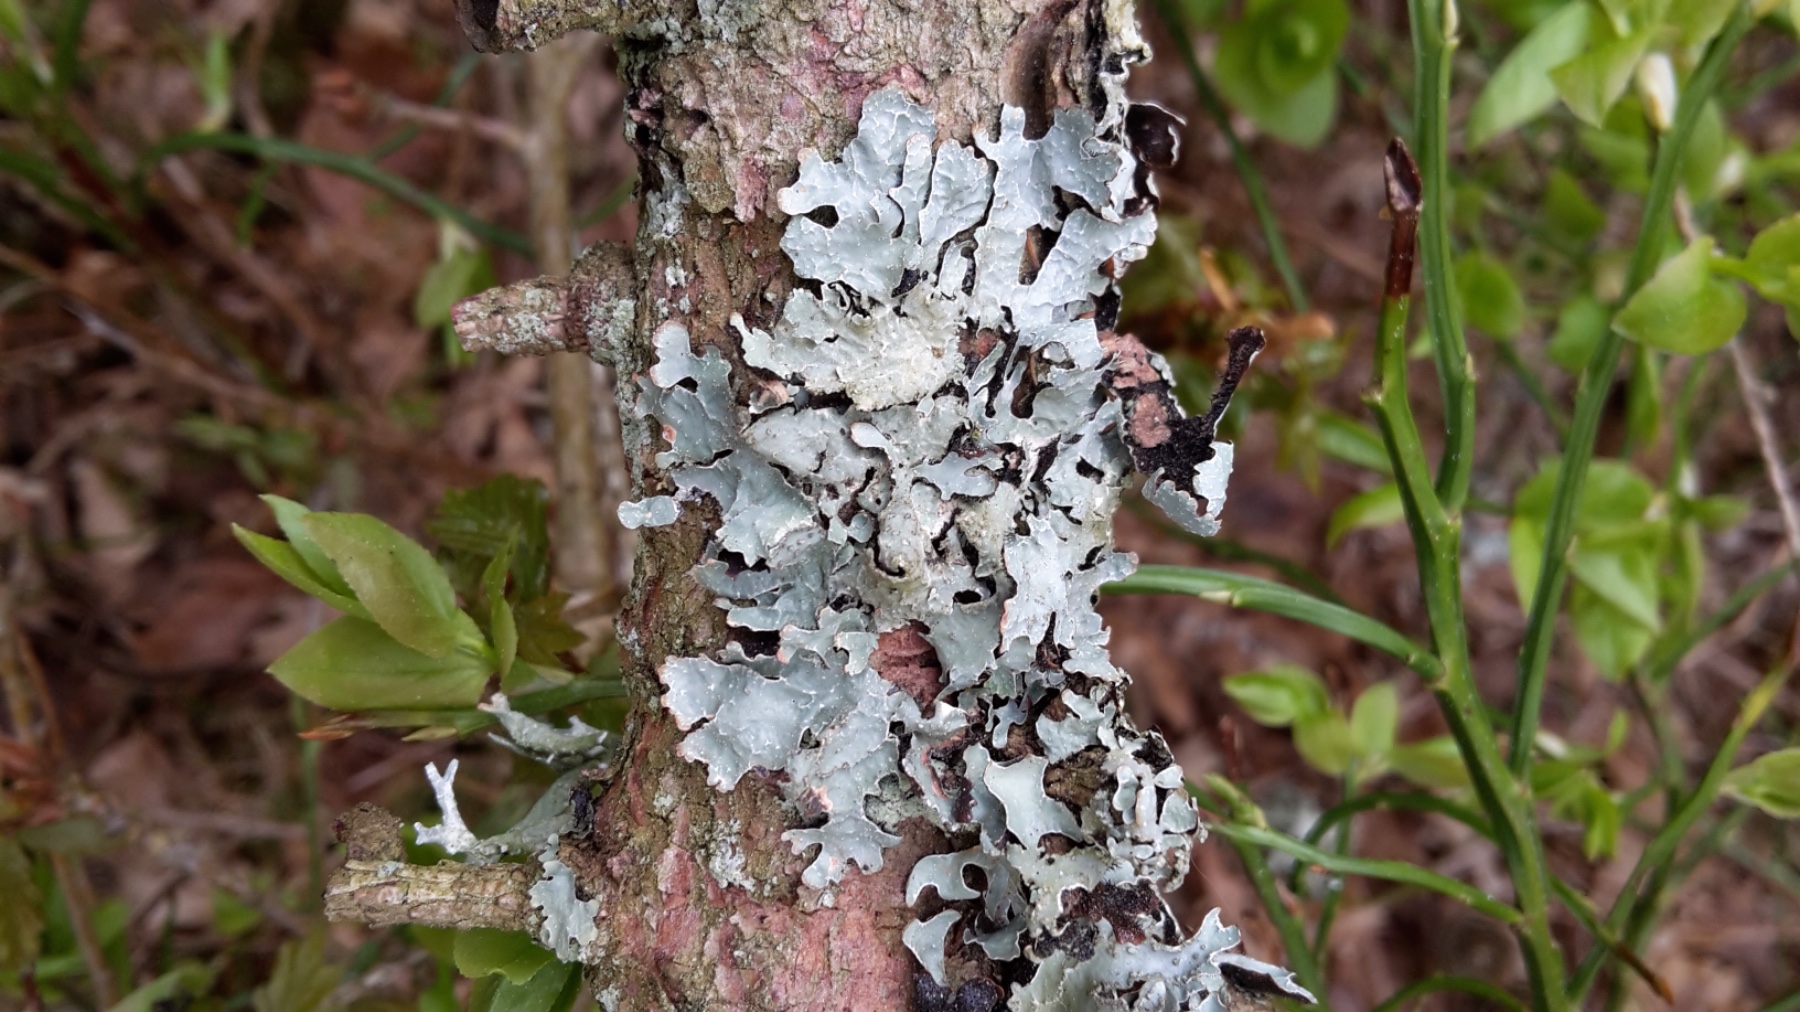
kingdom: Fungi
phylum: Ascomycota
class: Lecanoromycetes
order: Lecanorales
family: Parmeliaceae
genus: Parmelia
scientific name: Parmelia sulcata
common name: rynket skållav
